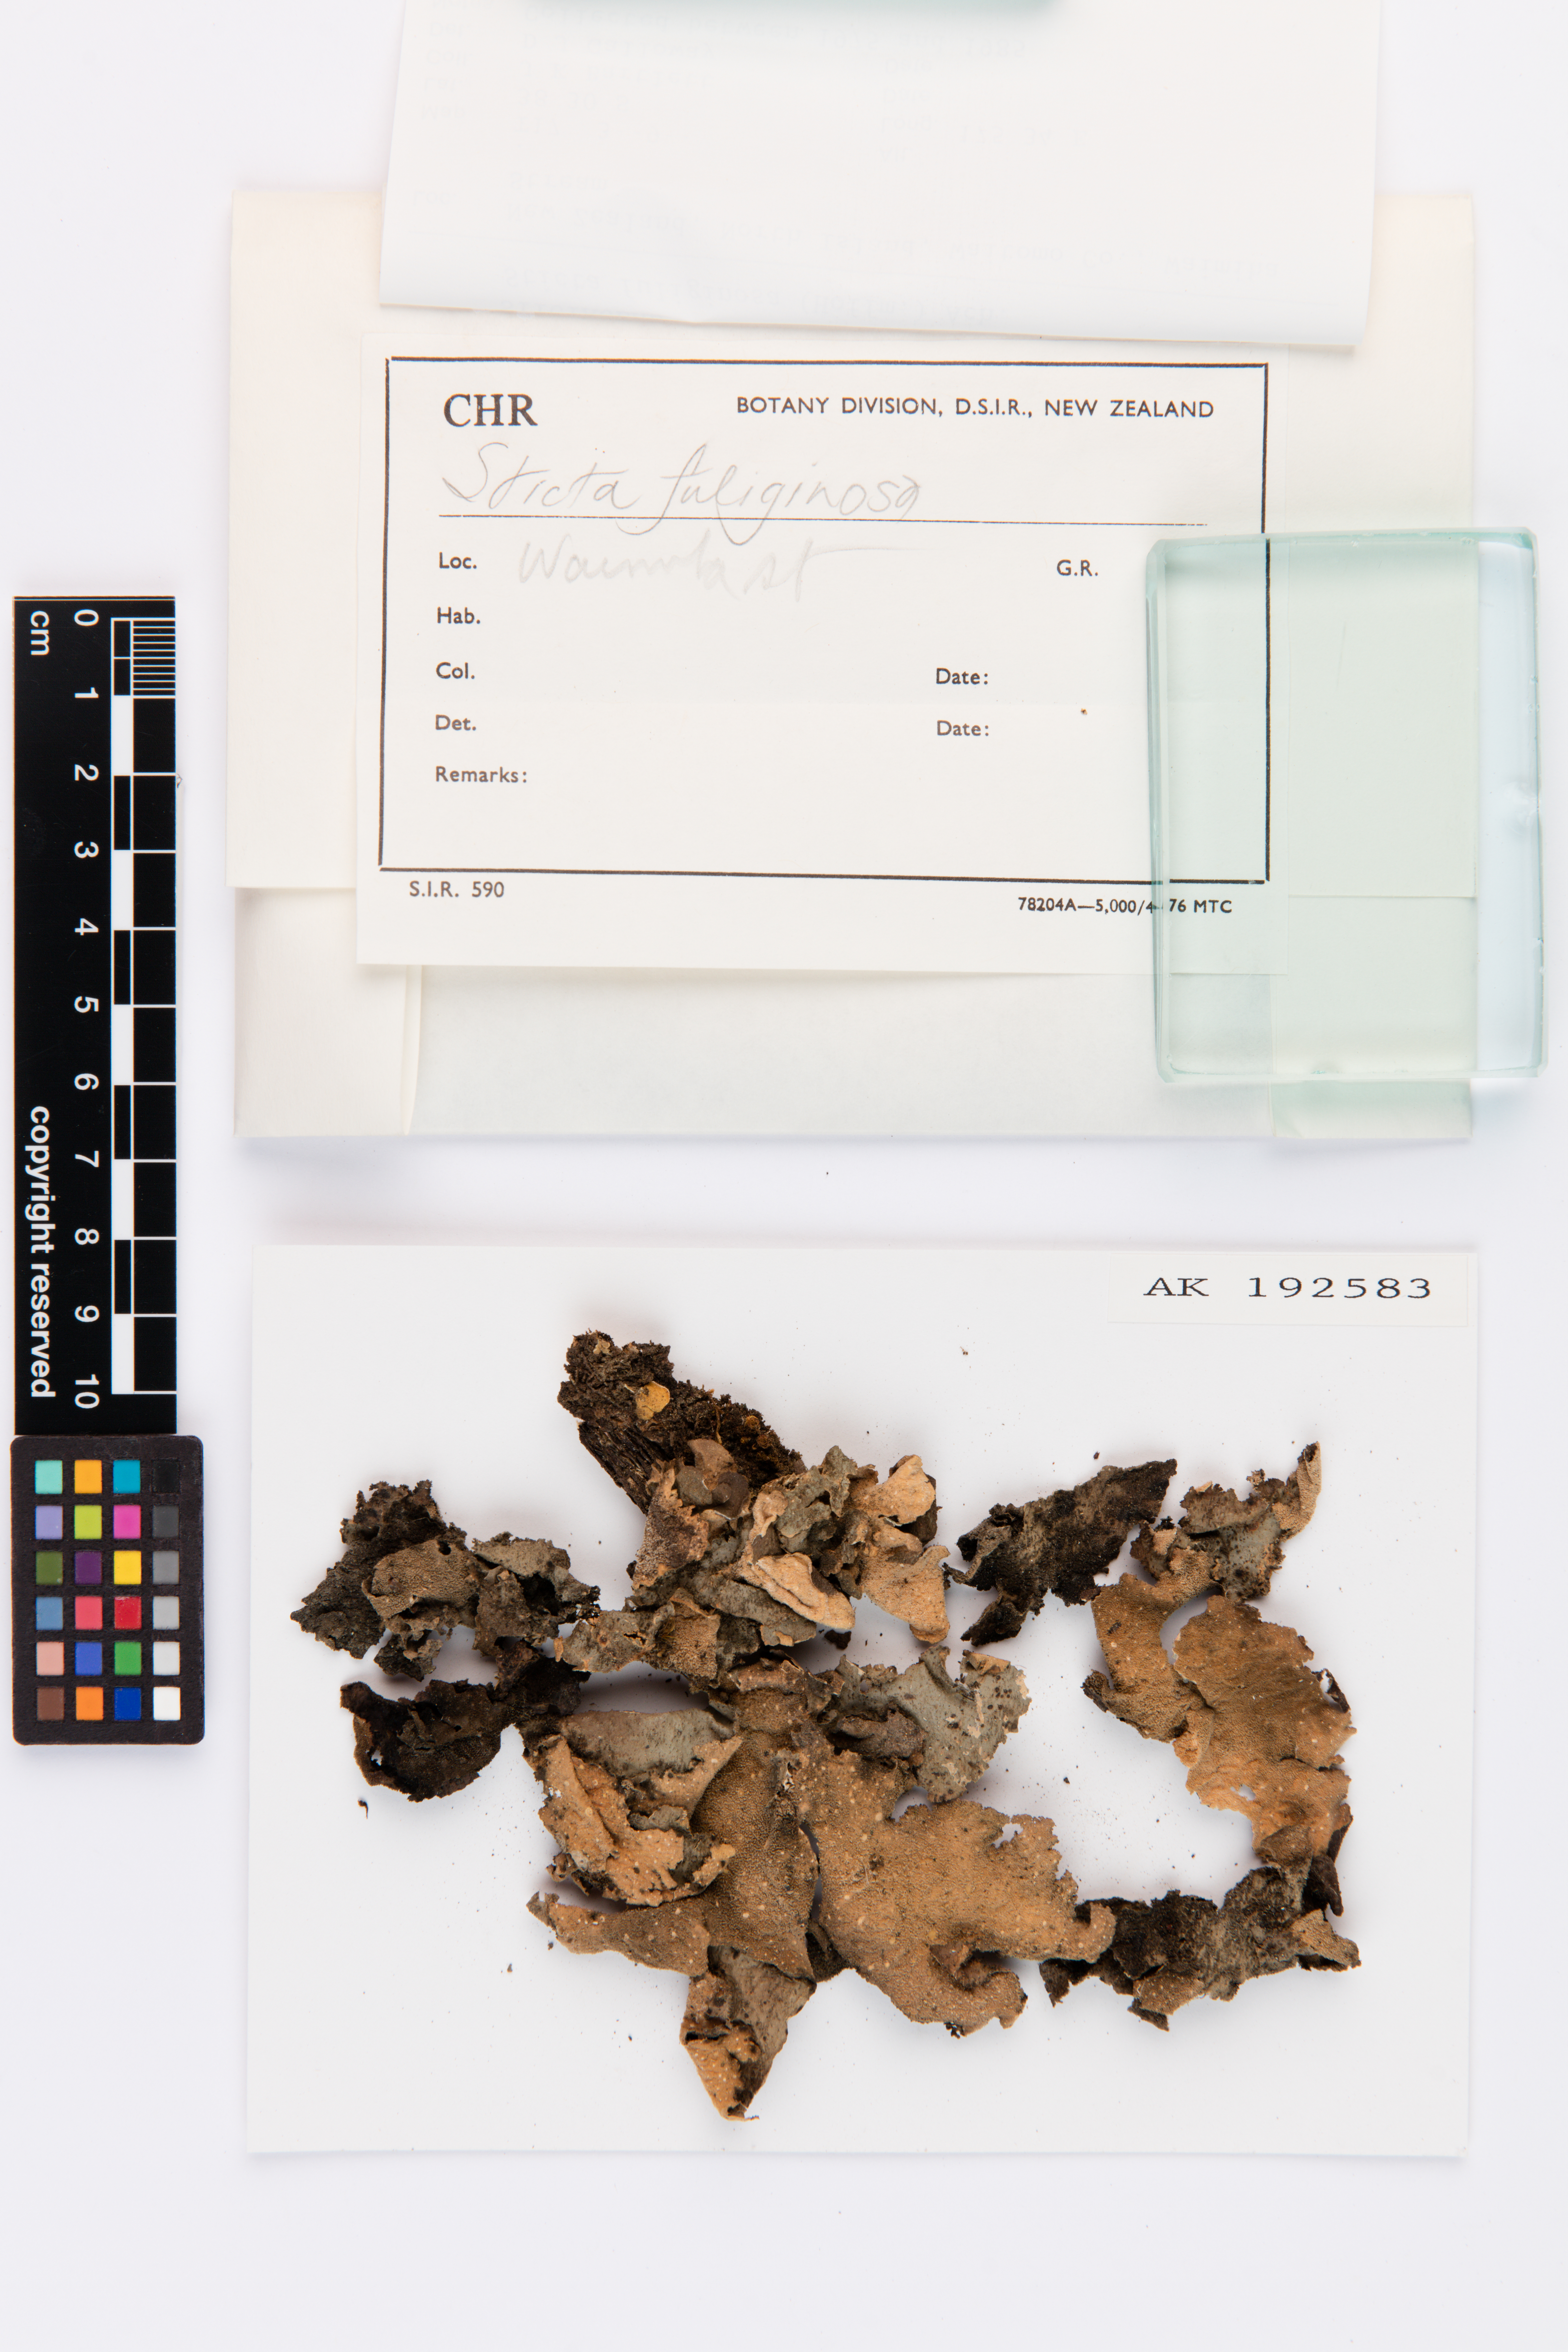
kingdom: Fungi
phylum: Ascomycota
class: Lecanoromycetes
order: Peltigerales
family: Lobariaceae
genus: Sticta
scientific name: Sticta fuliginosa
